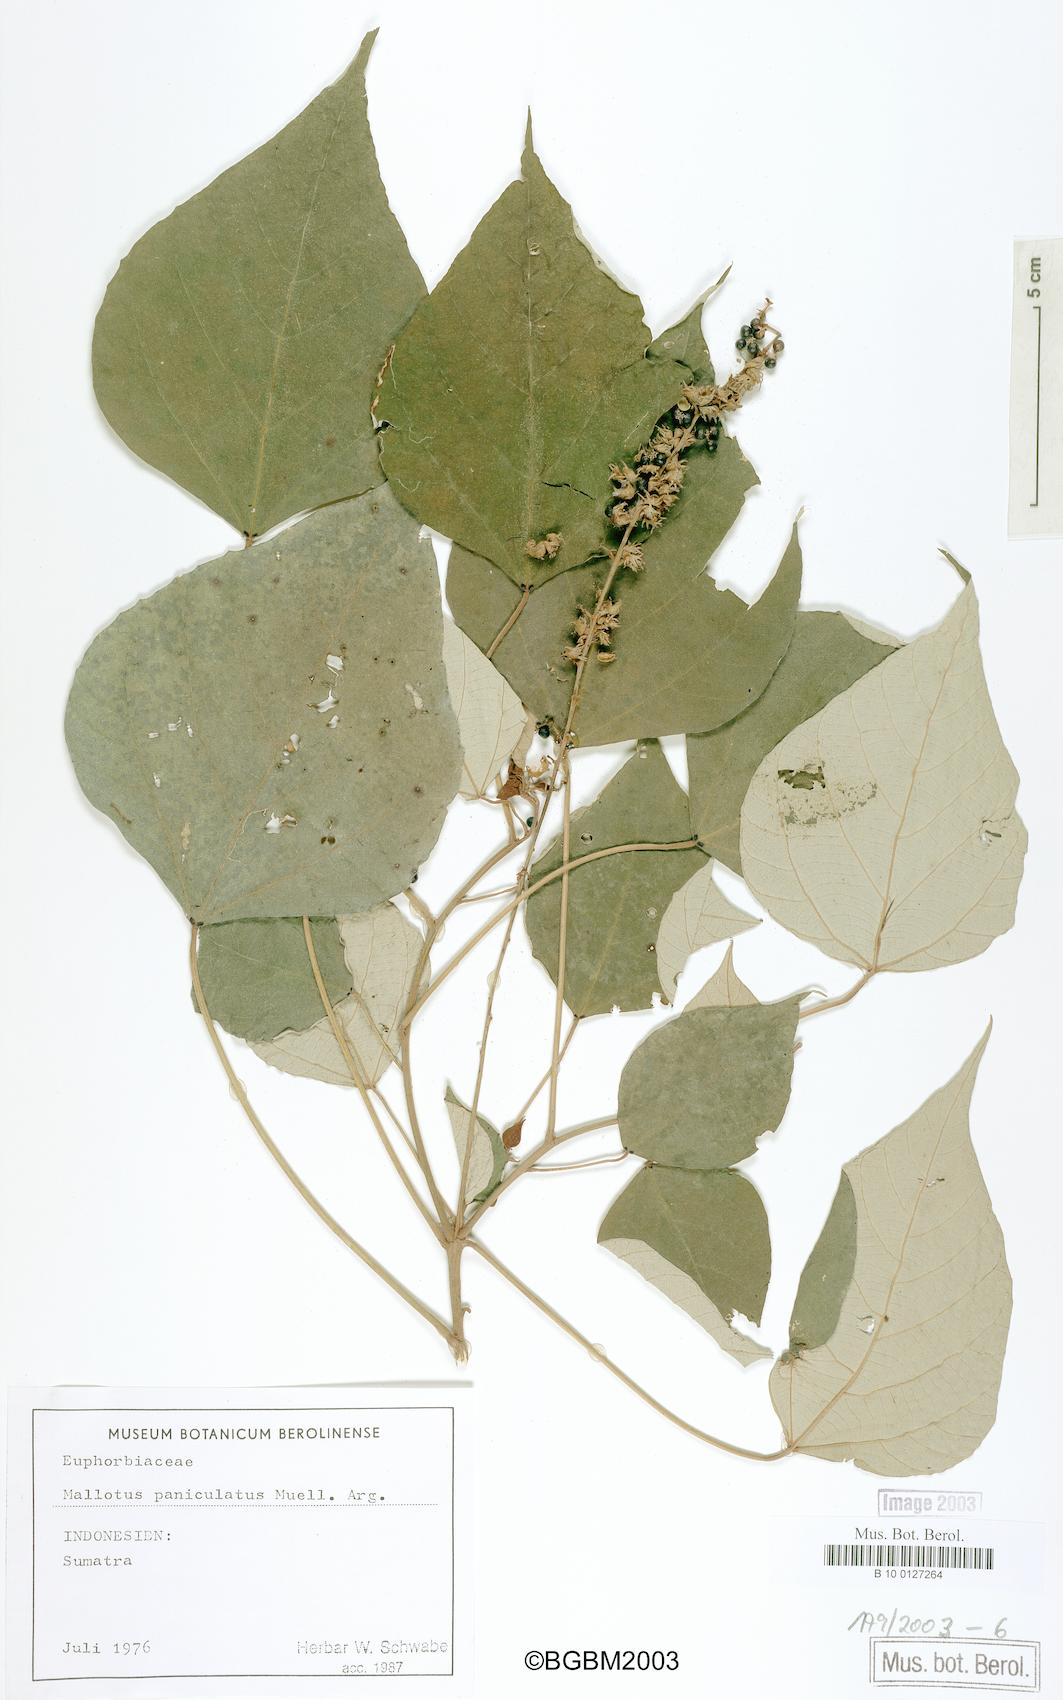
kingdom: Plantae
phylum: Tracheophyta
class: Magnoliopsida
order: Malpighiales
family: Euphorbiaceae
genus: Mallotus
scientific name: Mallotus paniculatus
